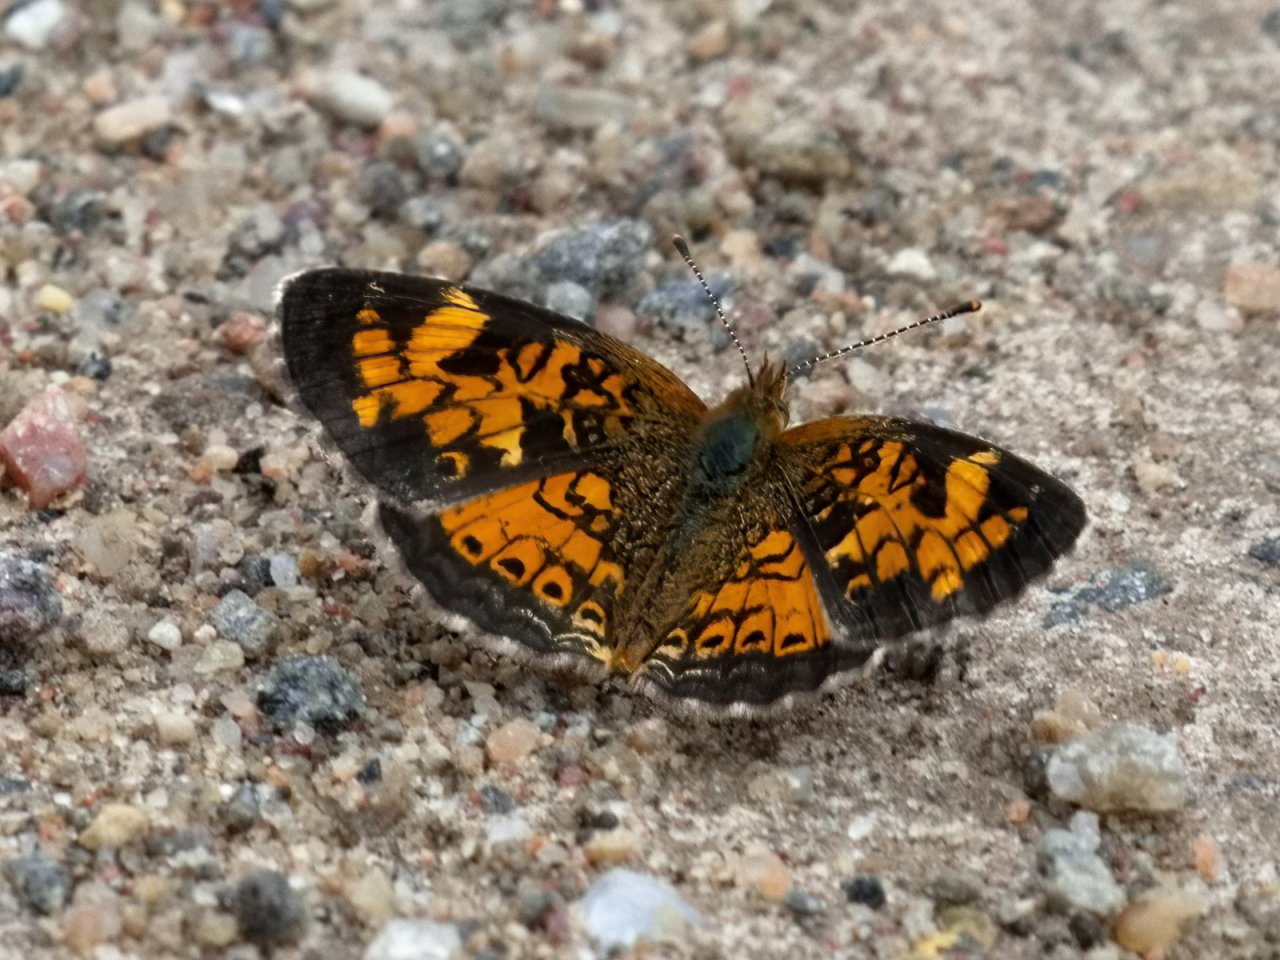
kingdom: Animalia
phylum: Arthropoda
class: Insecta
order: Lepidoptera
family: Nymphalidae
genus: Phyciodes
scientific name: Phyciodes tharos
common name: Northern Crescent
